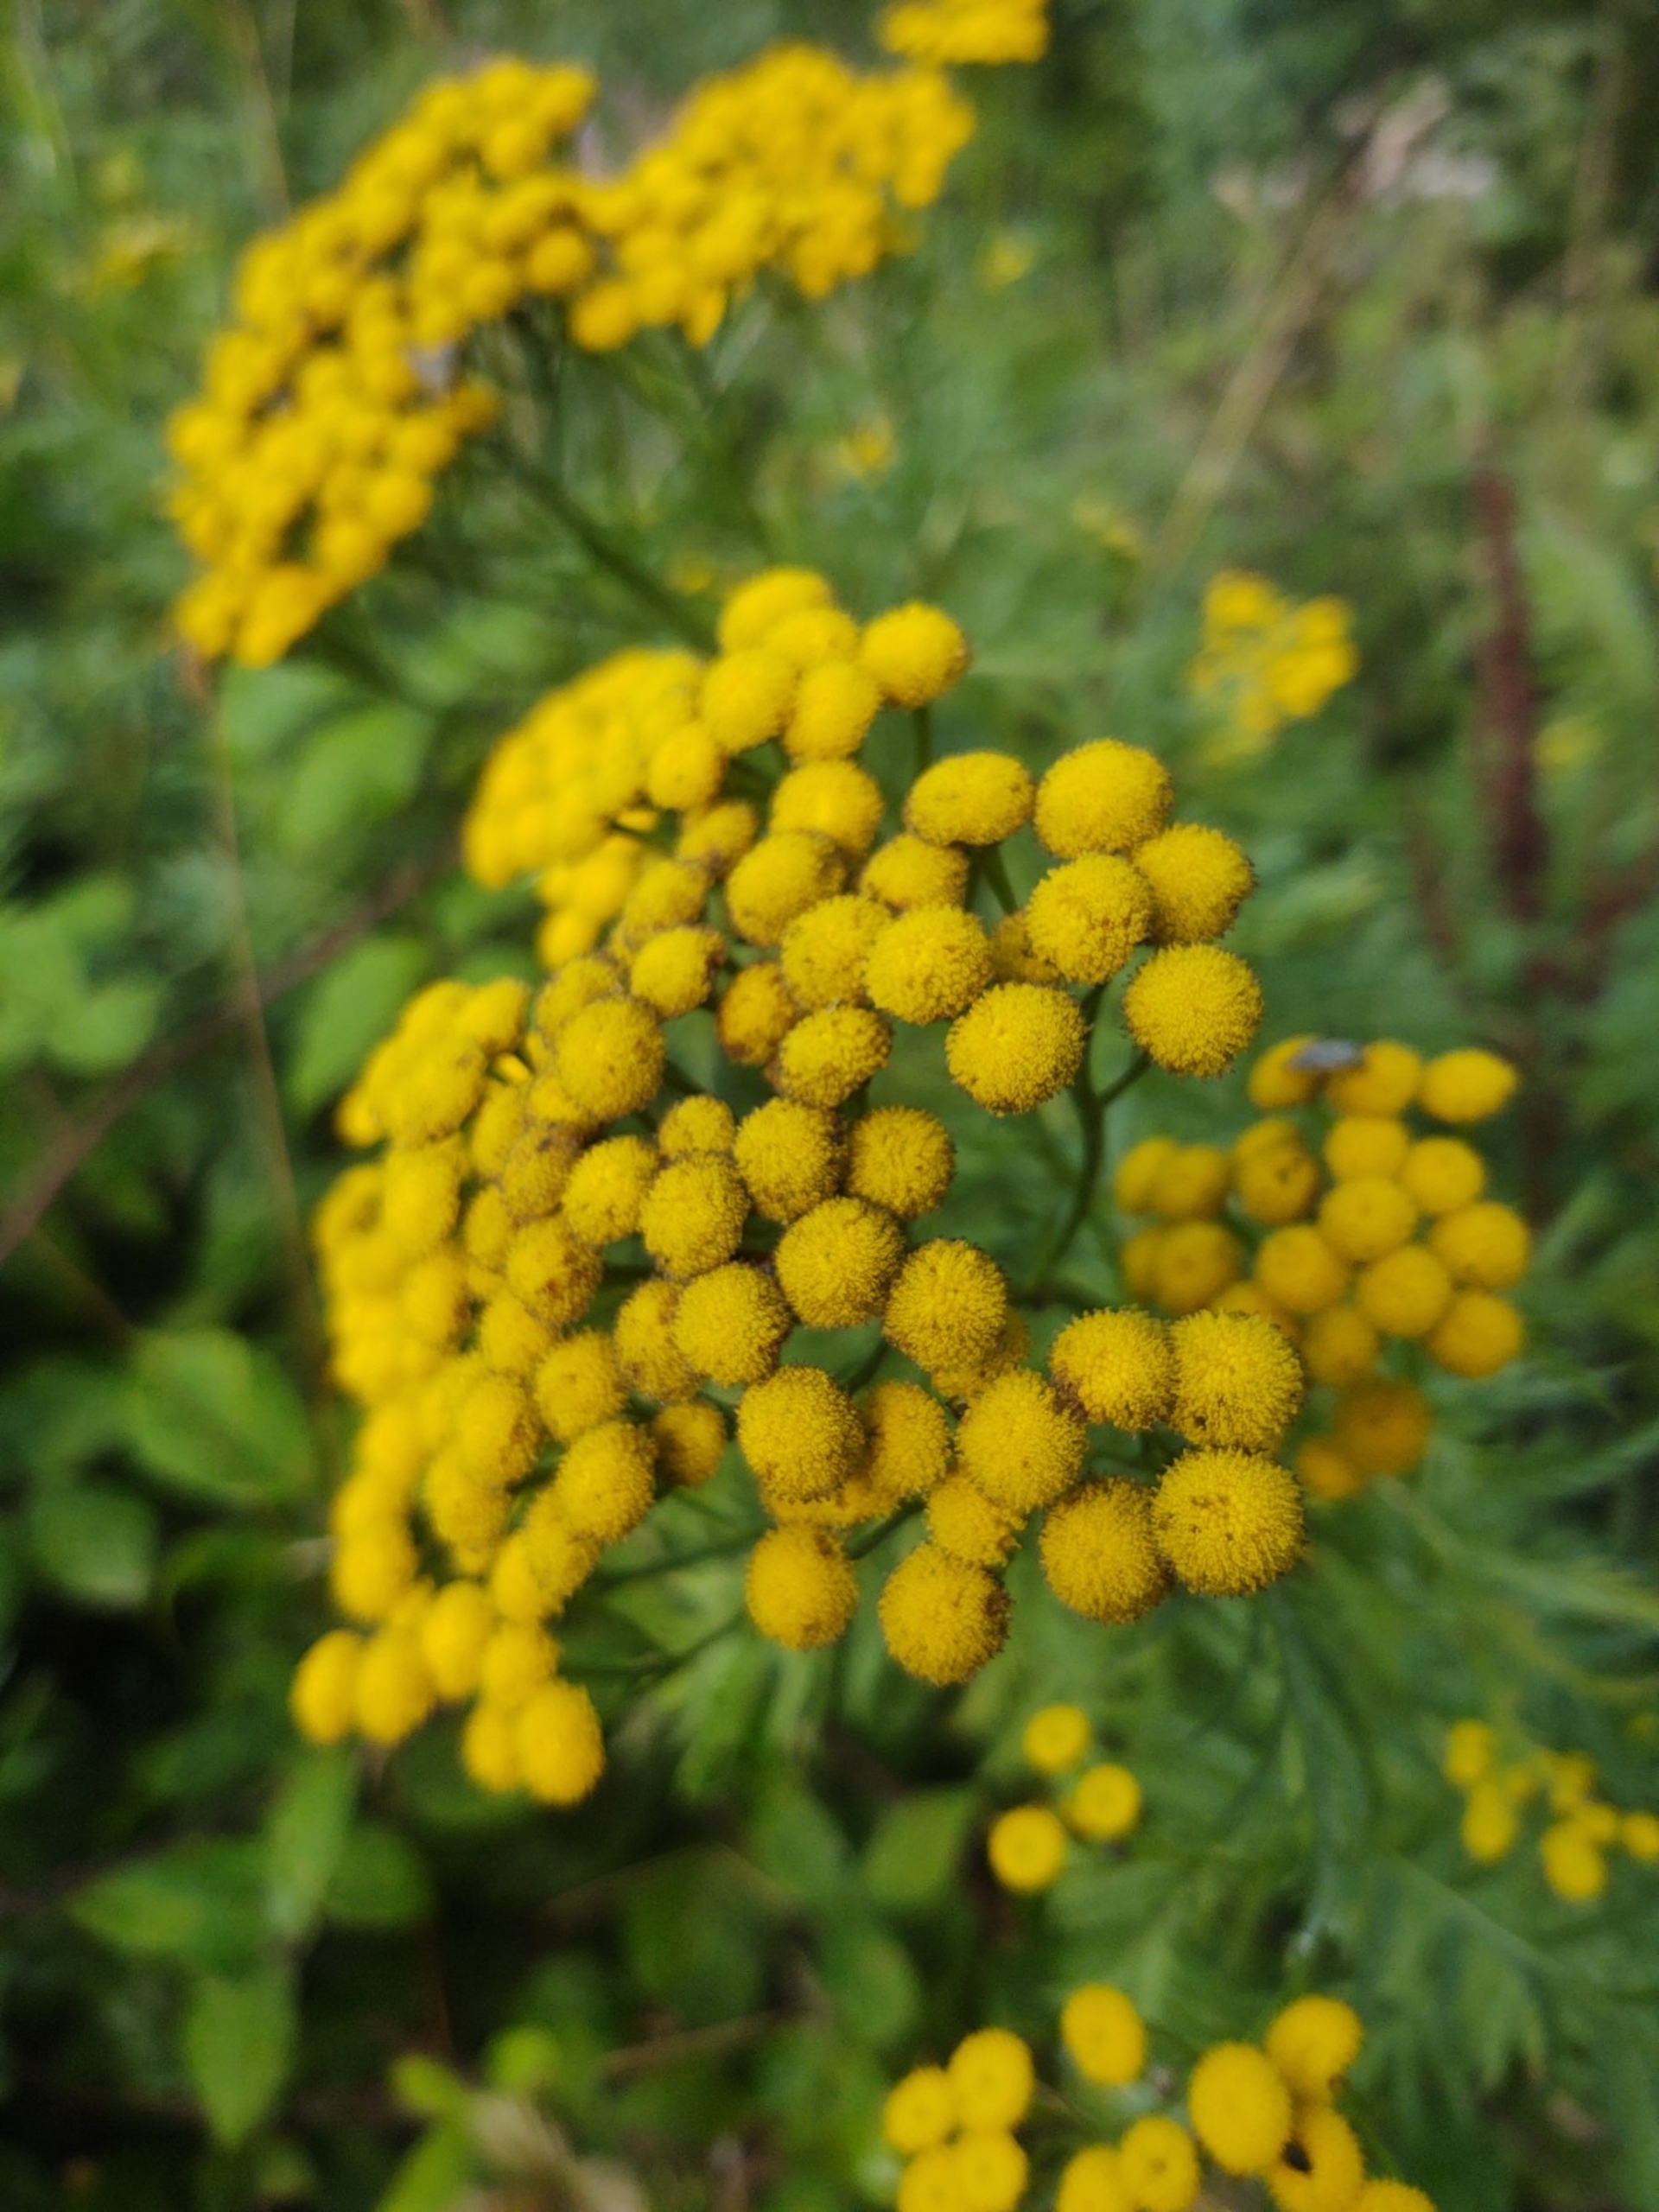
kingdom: Plantae
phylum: Tracheophyta
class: Magnoliopsida
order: Asterales
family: Asteraceae
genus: Tanacetum
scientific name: Tanacetum vulgare
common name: Rejnfan
